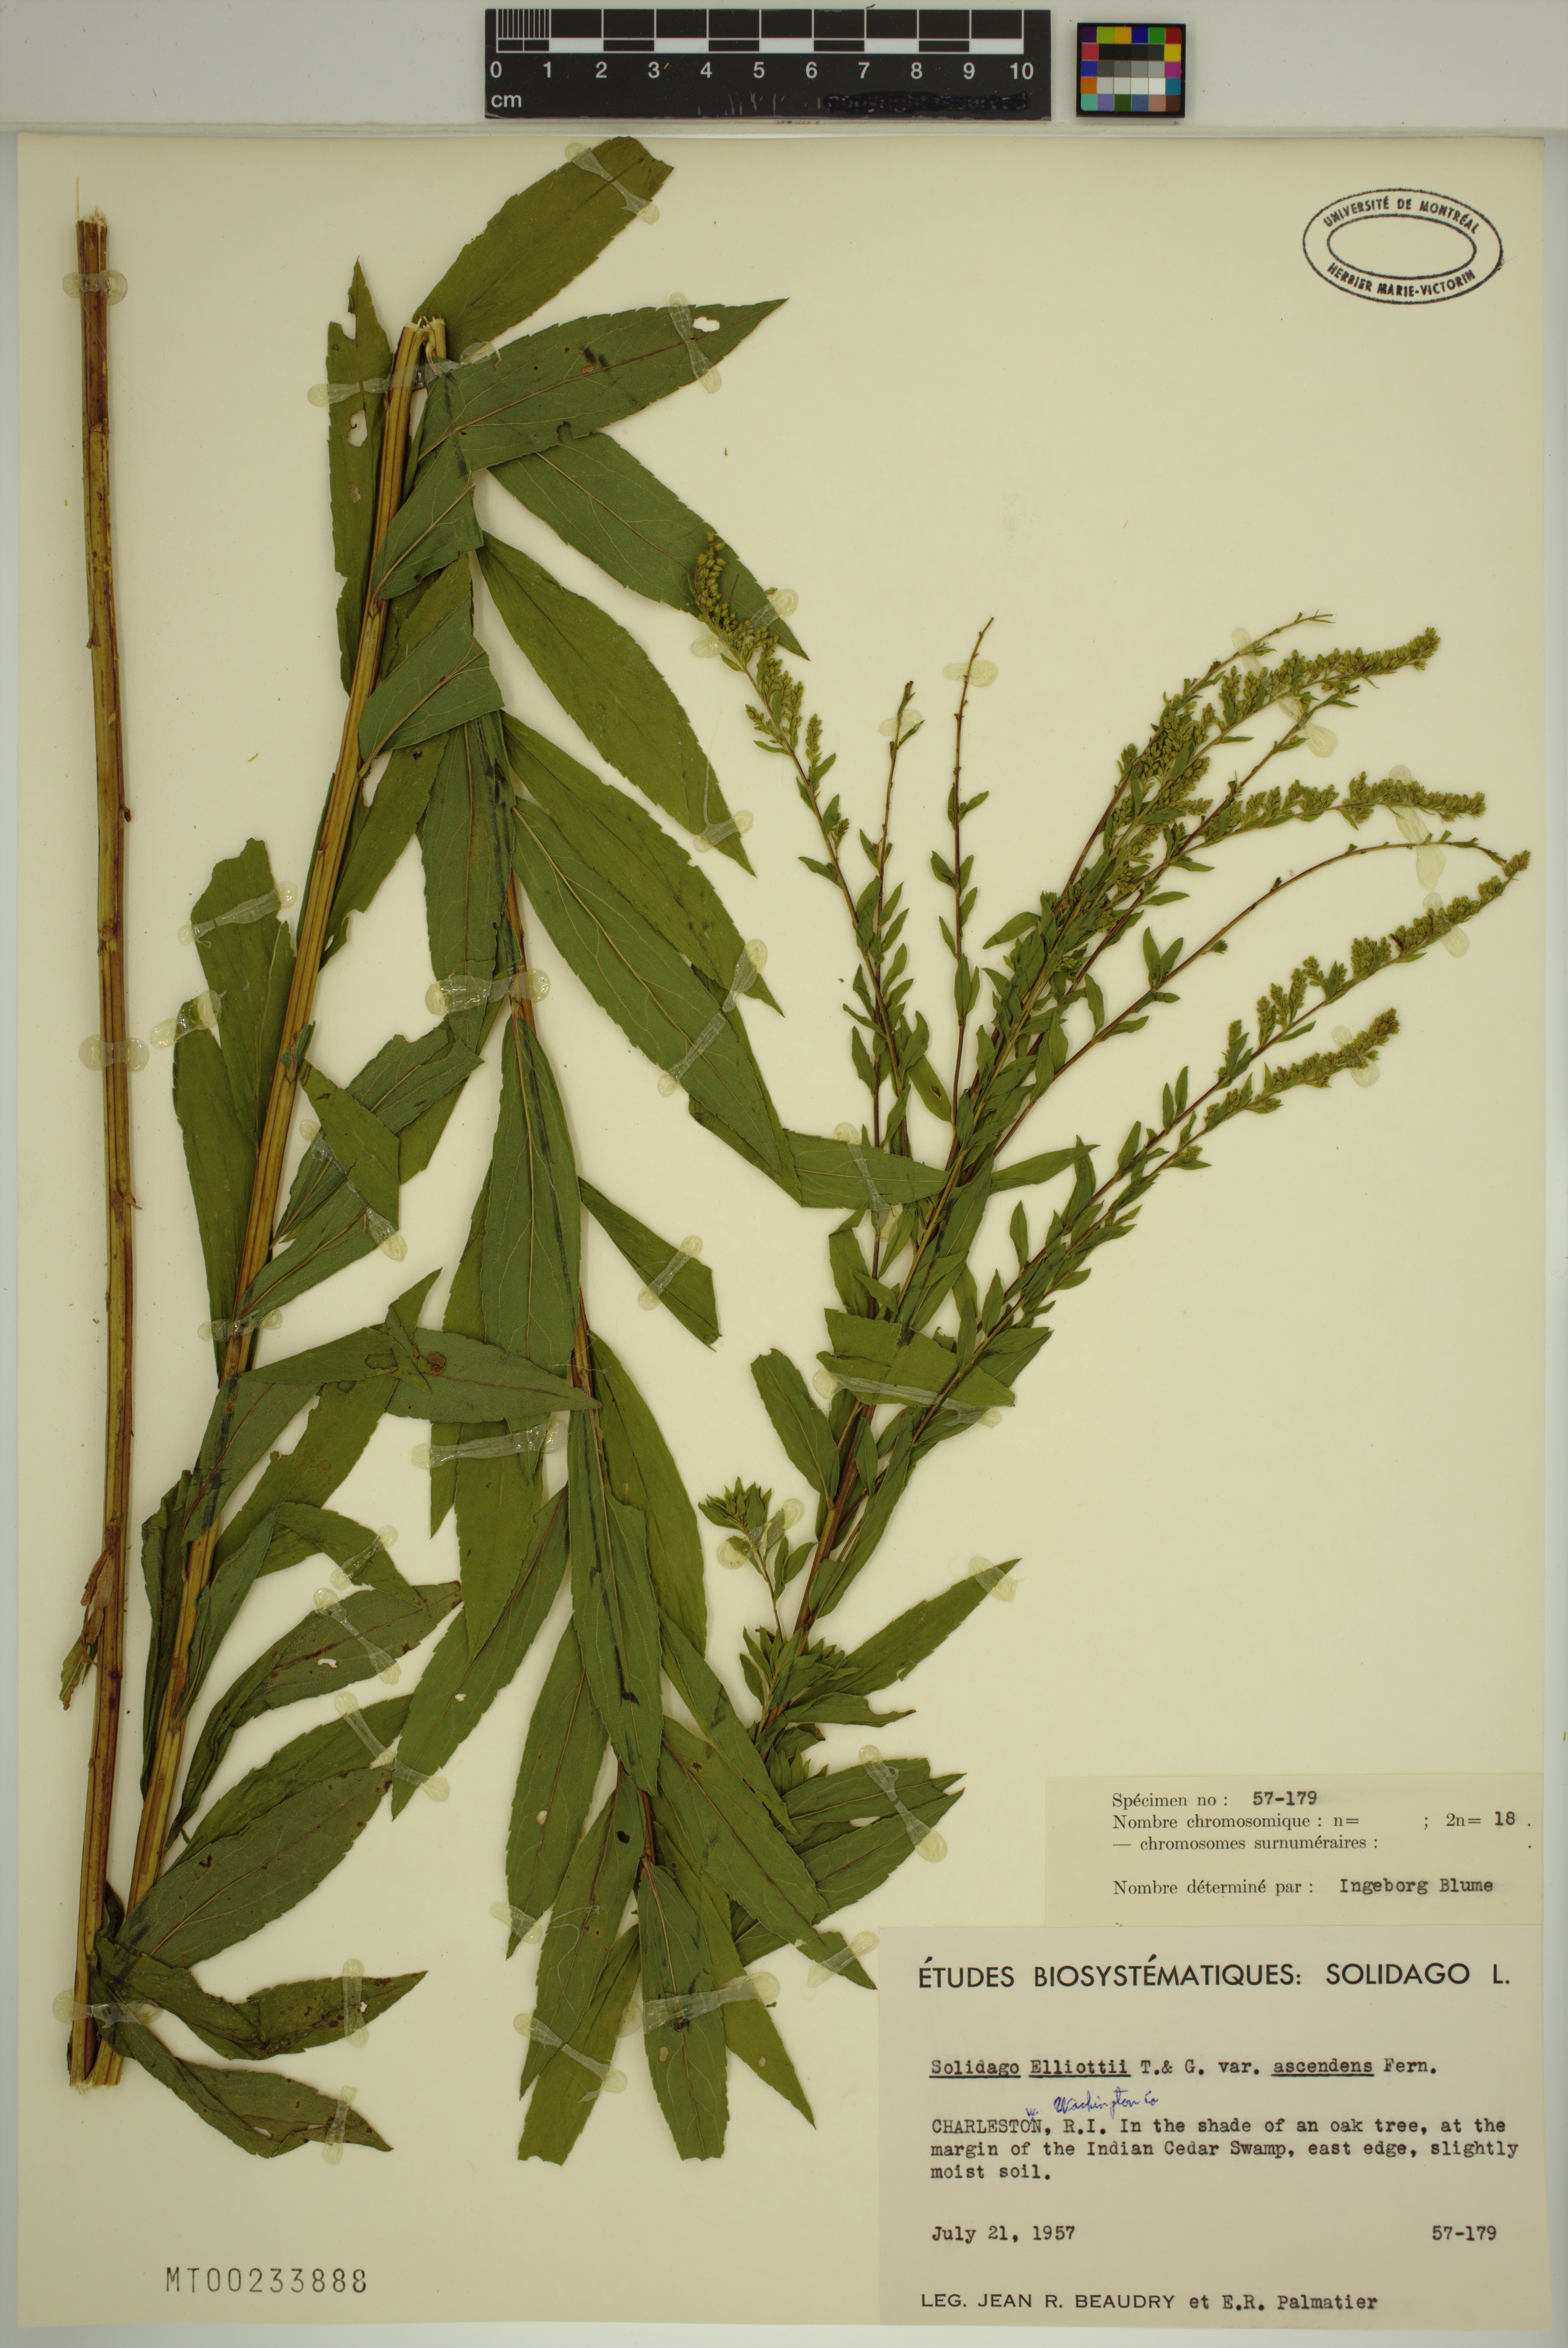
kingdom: Plantae
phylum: Tracheophyta
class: Magnoliopsida
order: Asterales
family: Asteraceae
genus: Solidago
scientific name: Solidago latissimifolia
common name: Elliott's goldenrod
